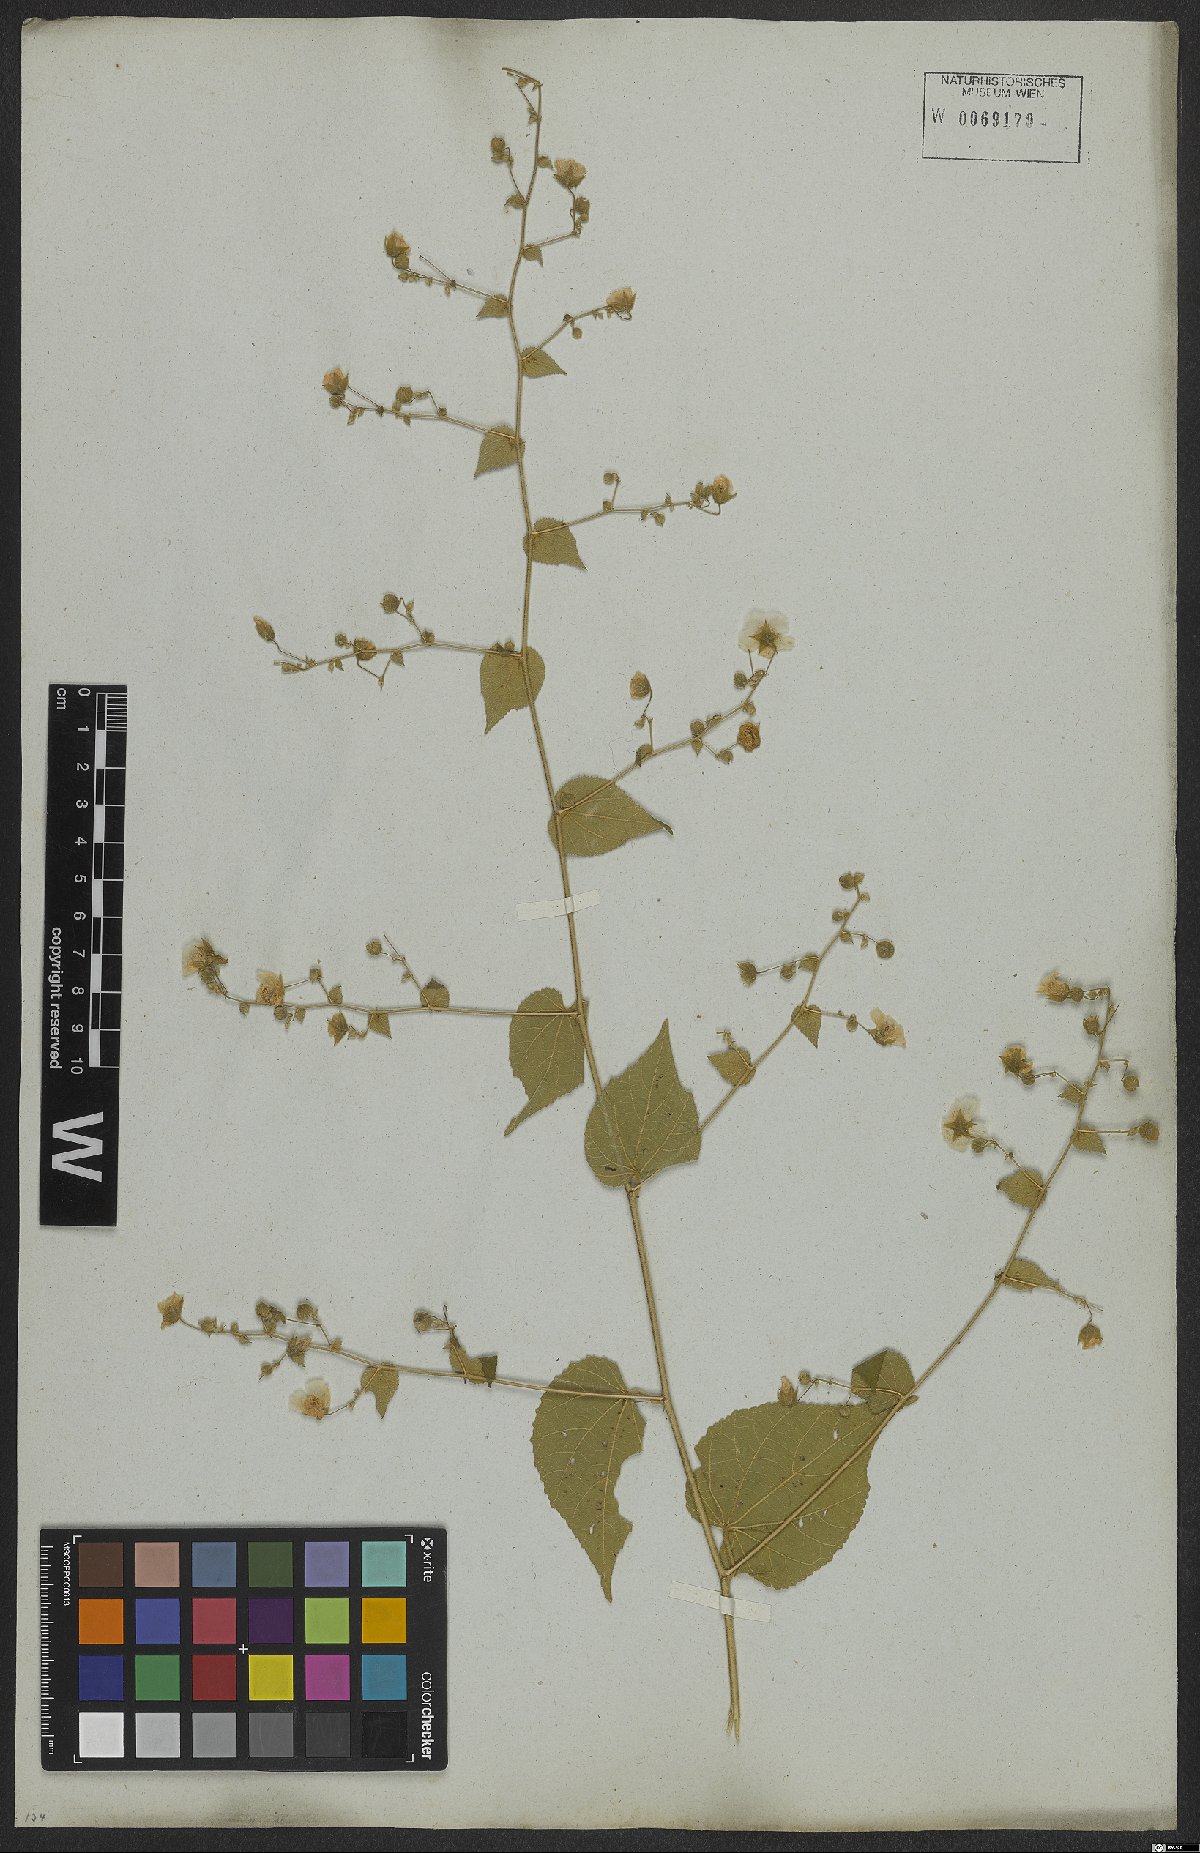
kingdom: Plantae
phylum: Tracheophyta
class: Magnoliopsida
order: Malvales
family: Malvaceae
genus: Herissantia
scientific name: Herissantia crispa
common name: Bladdermallow
